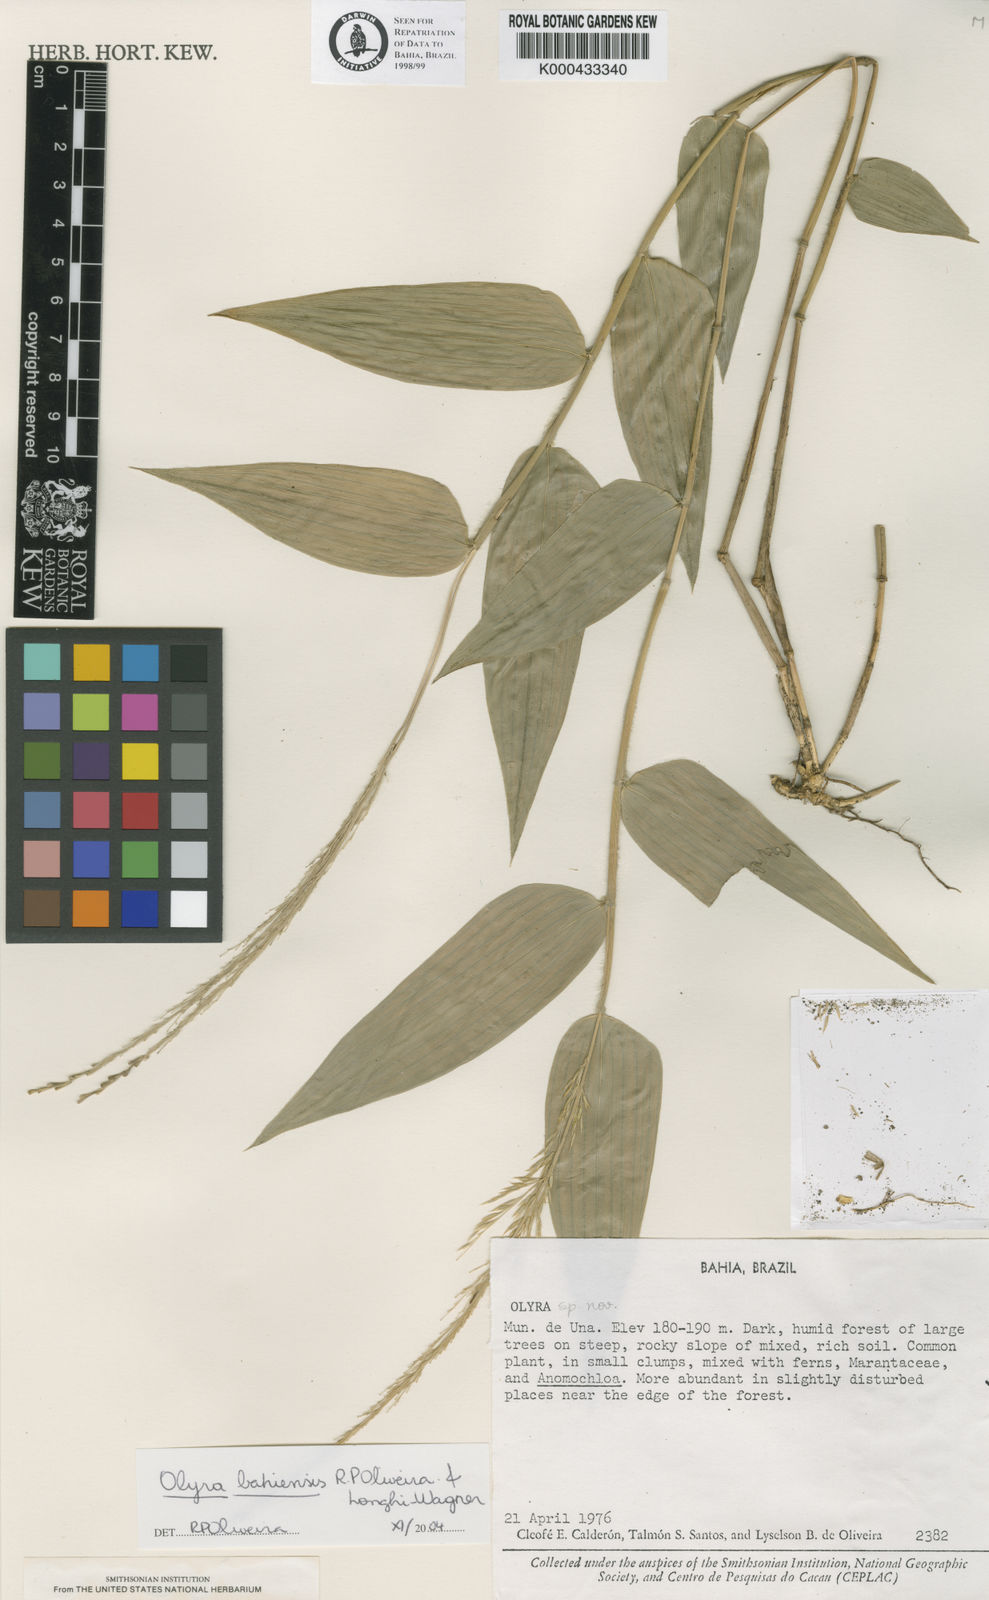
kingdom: Plantae
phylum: Tracheophyta
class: Liliopsida
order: Poales
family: Poaceae
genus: Olyra
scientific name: Olyra bahiensis
